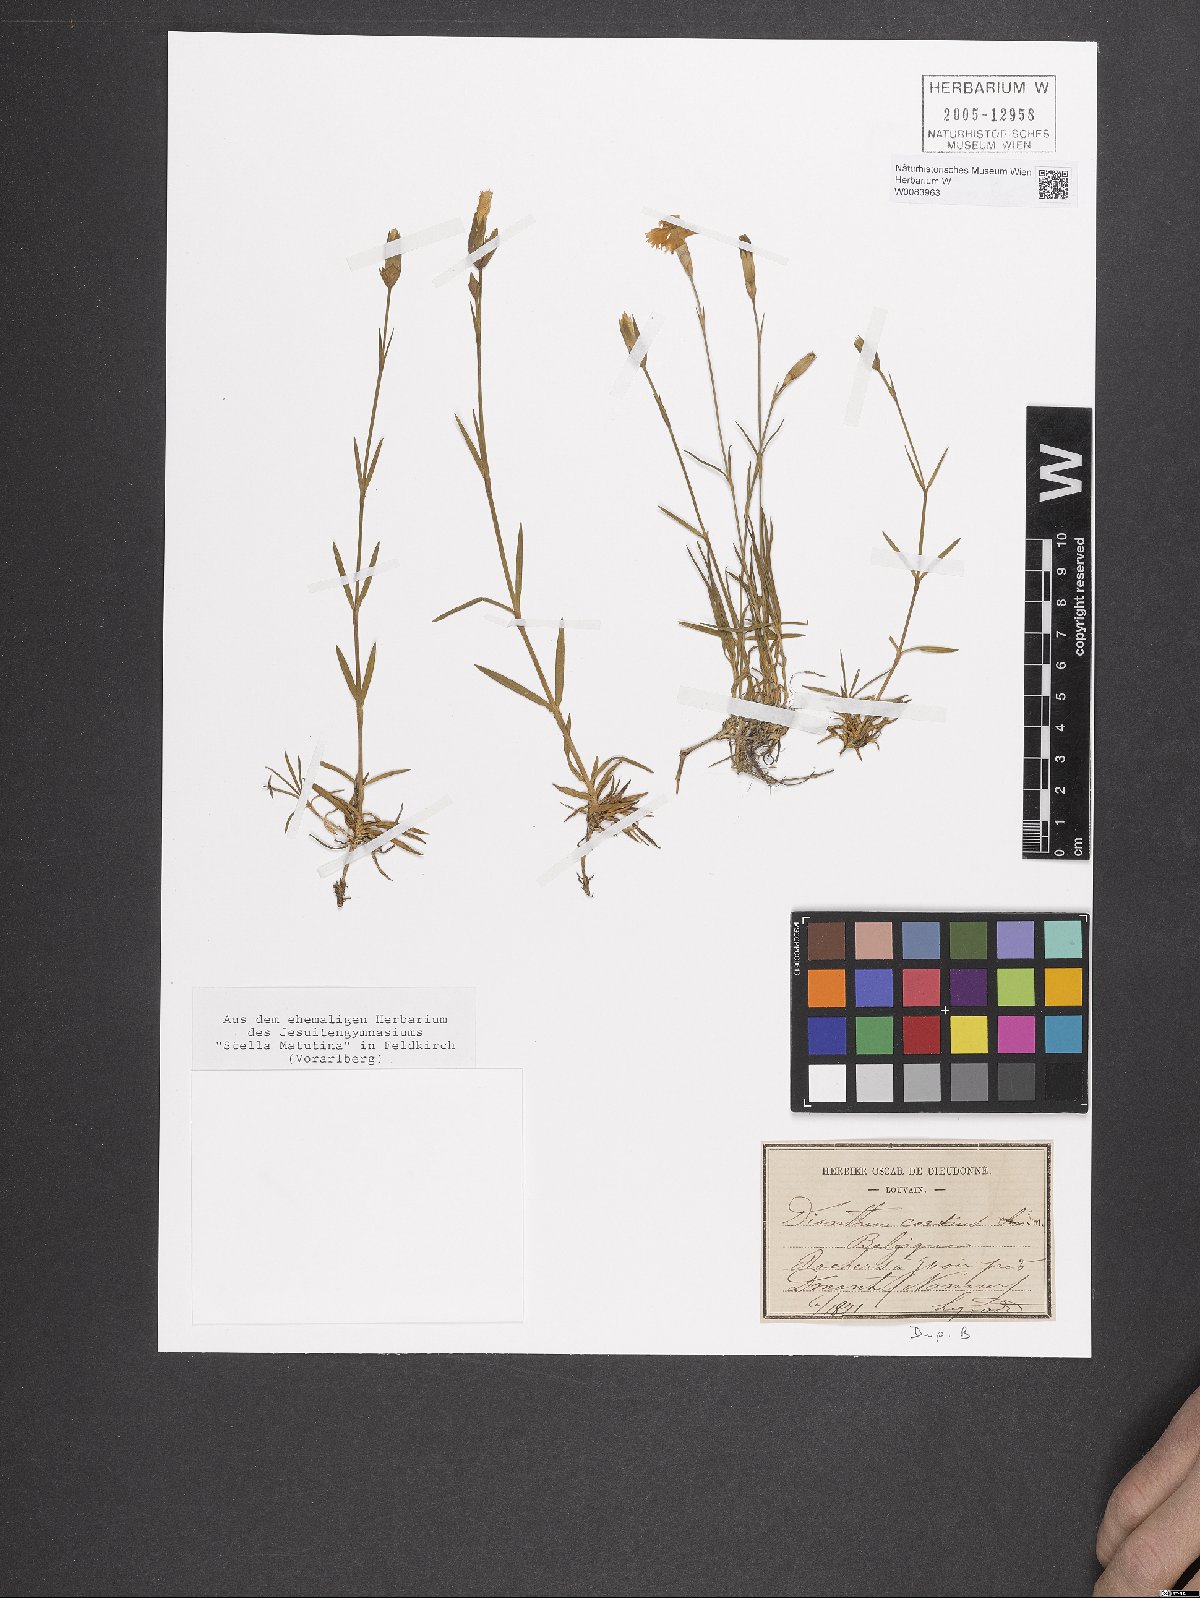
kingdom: Plantae
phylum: Tracheophyta
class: Magnoliopsida
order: Caryophyllales
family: Caryophyllaceae
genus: Dianthus
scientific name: Dianthus gratianopolitanus
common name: Cheddar pink
